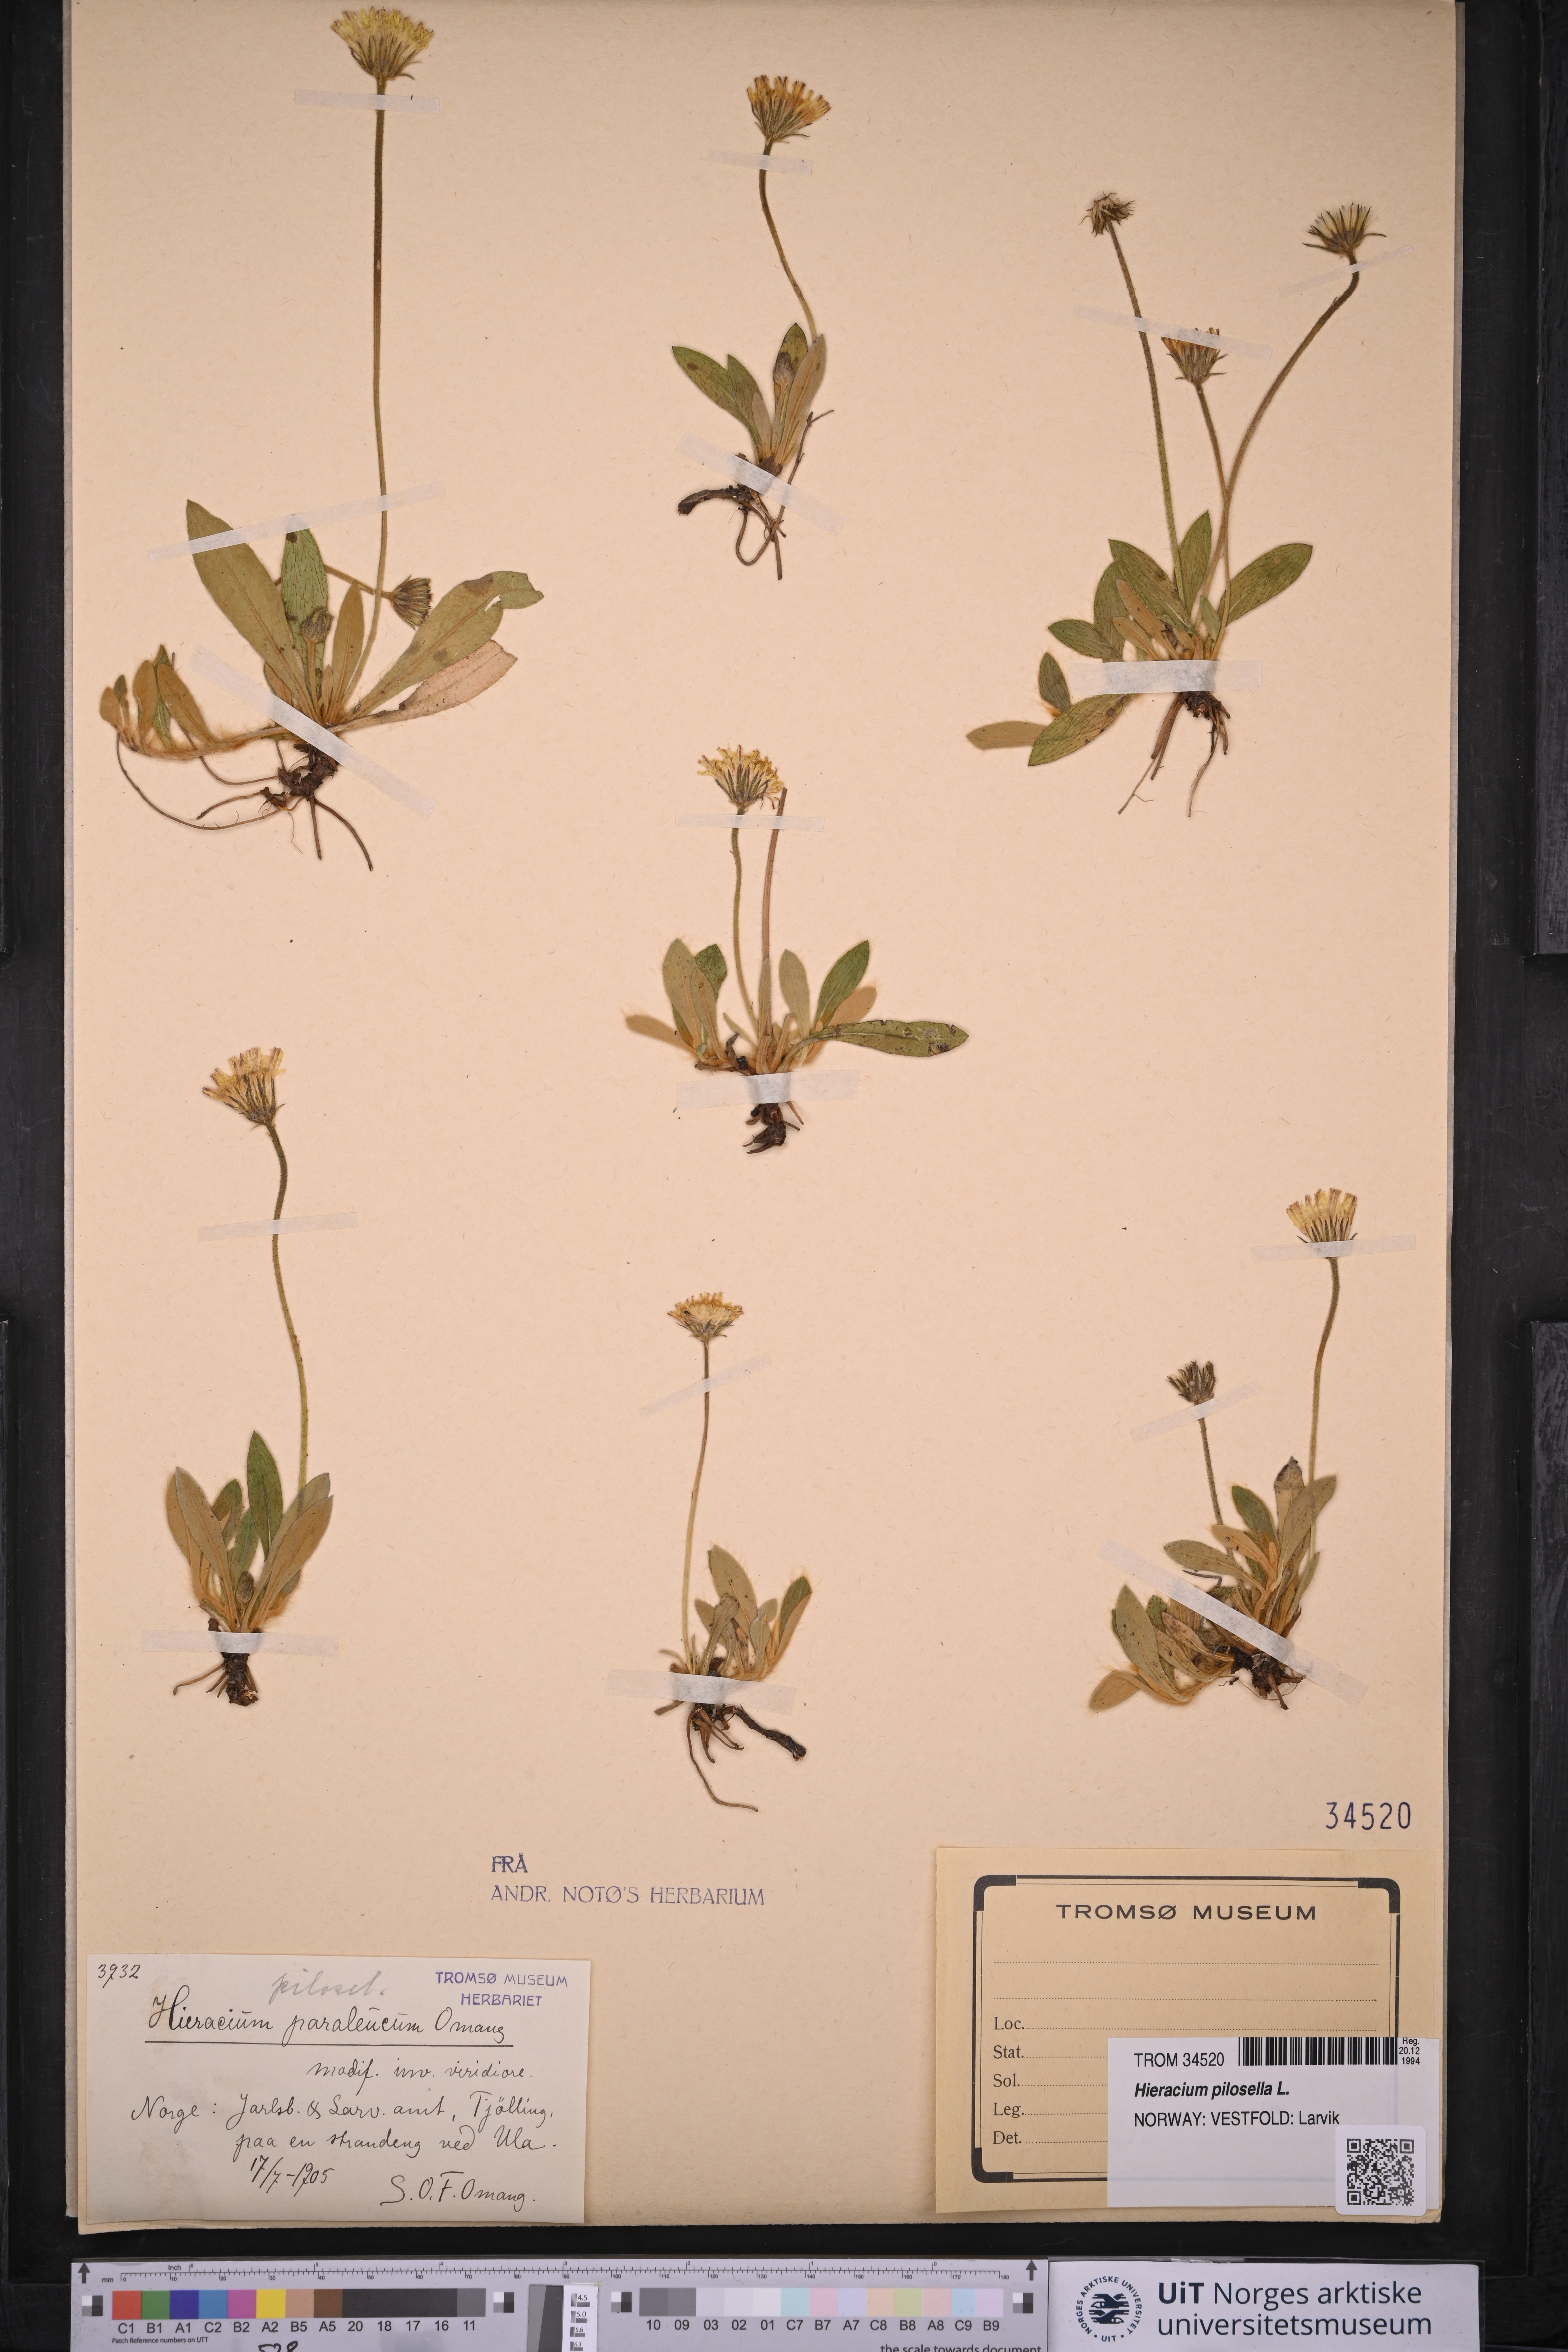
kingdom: Plantae
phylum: Tracheophyta
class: Magnoliopsida
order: Asterales
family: Asteraceae
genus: Pilosella
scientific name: Pilosella officinarum
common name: Mouse-ear hawkweed
